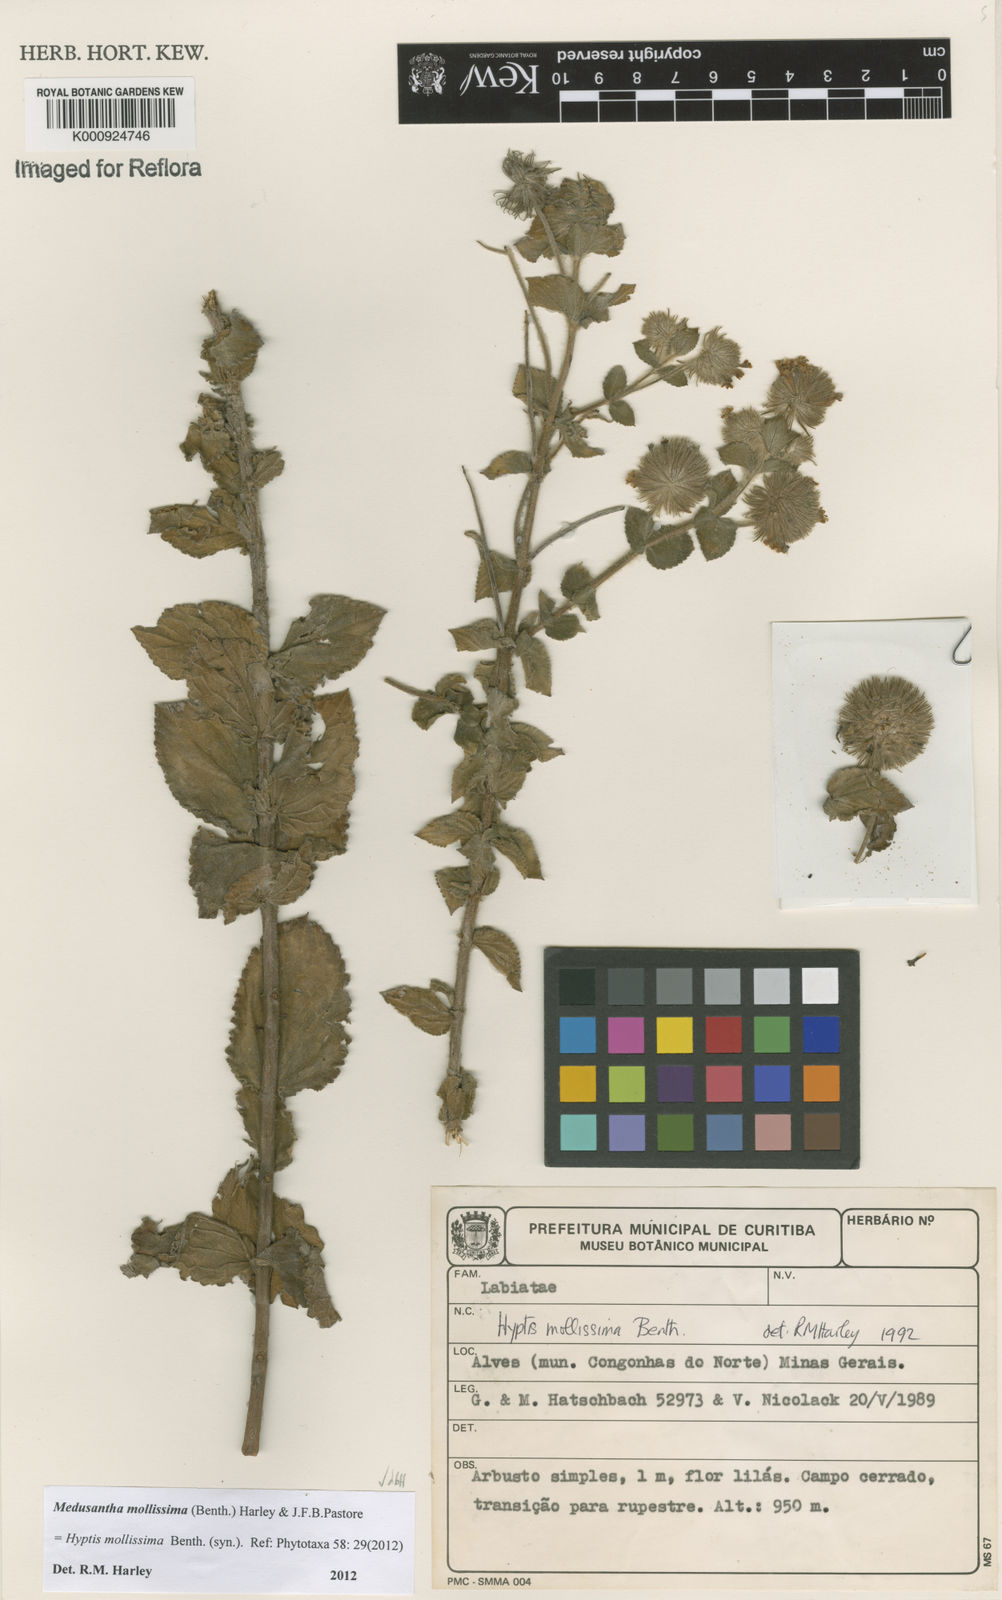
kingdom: Plantae
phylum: Tracheophyta
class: Magnoliopsida
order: Lamiales
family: Lamiaceae
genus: Medusantha
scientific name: Medusantha mollissima
